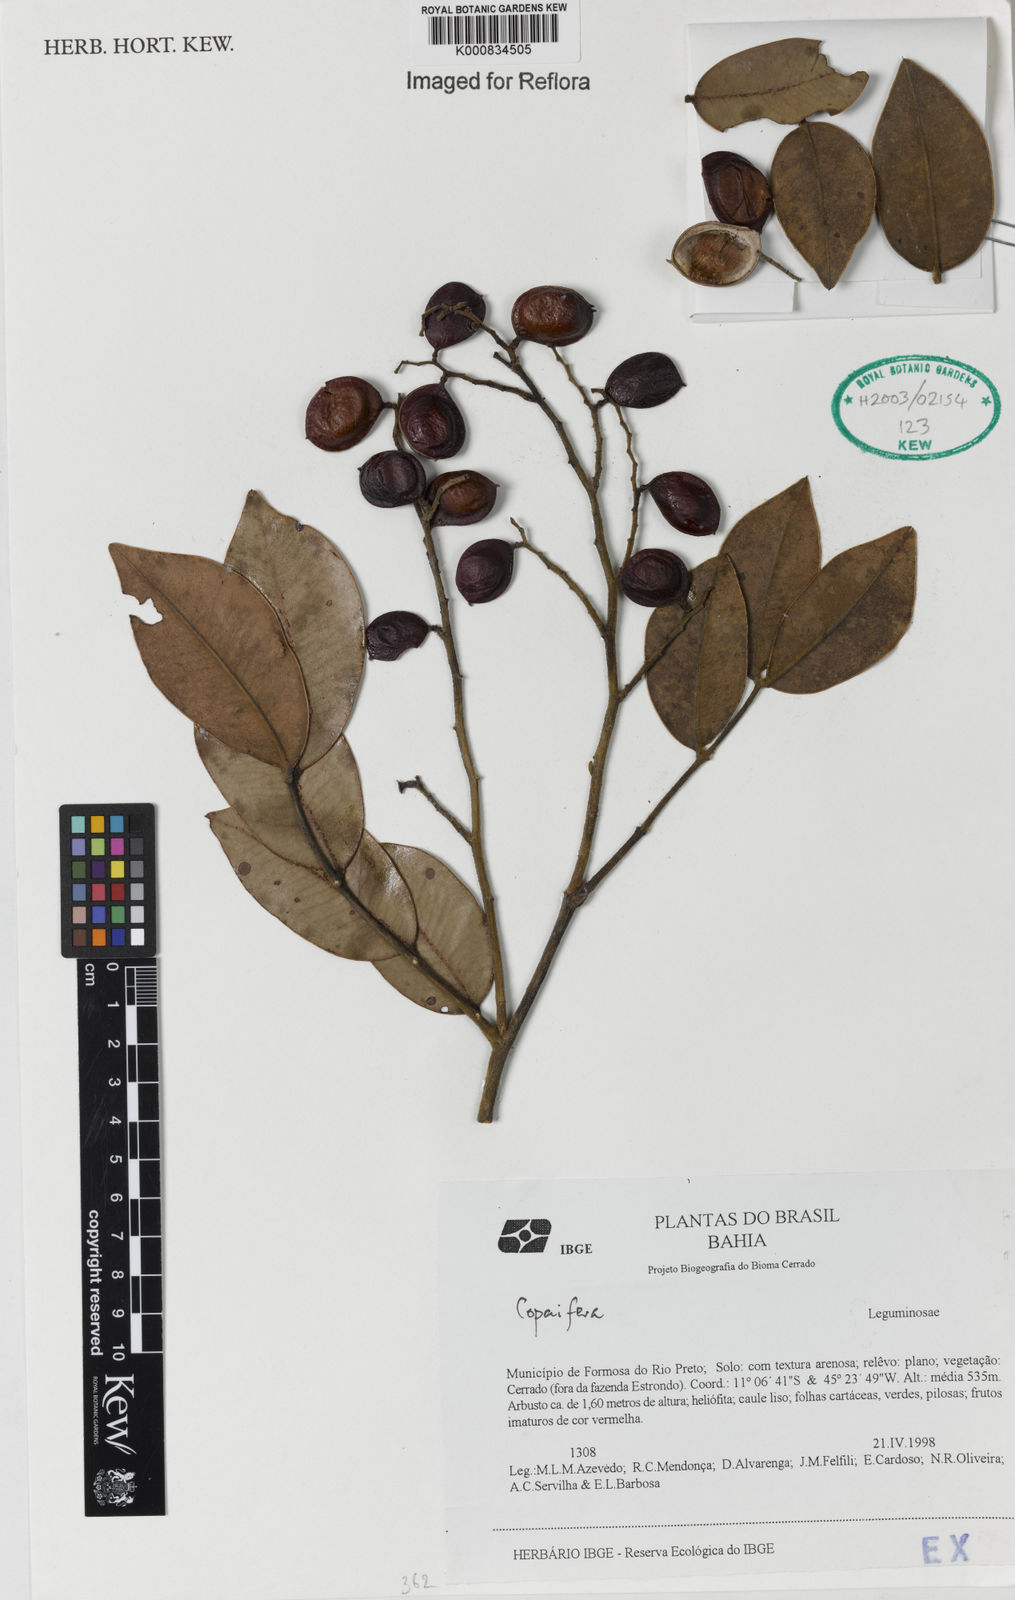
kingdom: Plantae
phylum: Tracheophyta
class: Magnoliopsida
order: Fabales
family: Fabaceae
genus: Copaifera
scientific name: Copaifera
